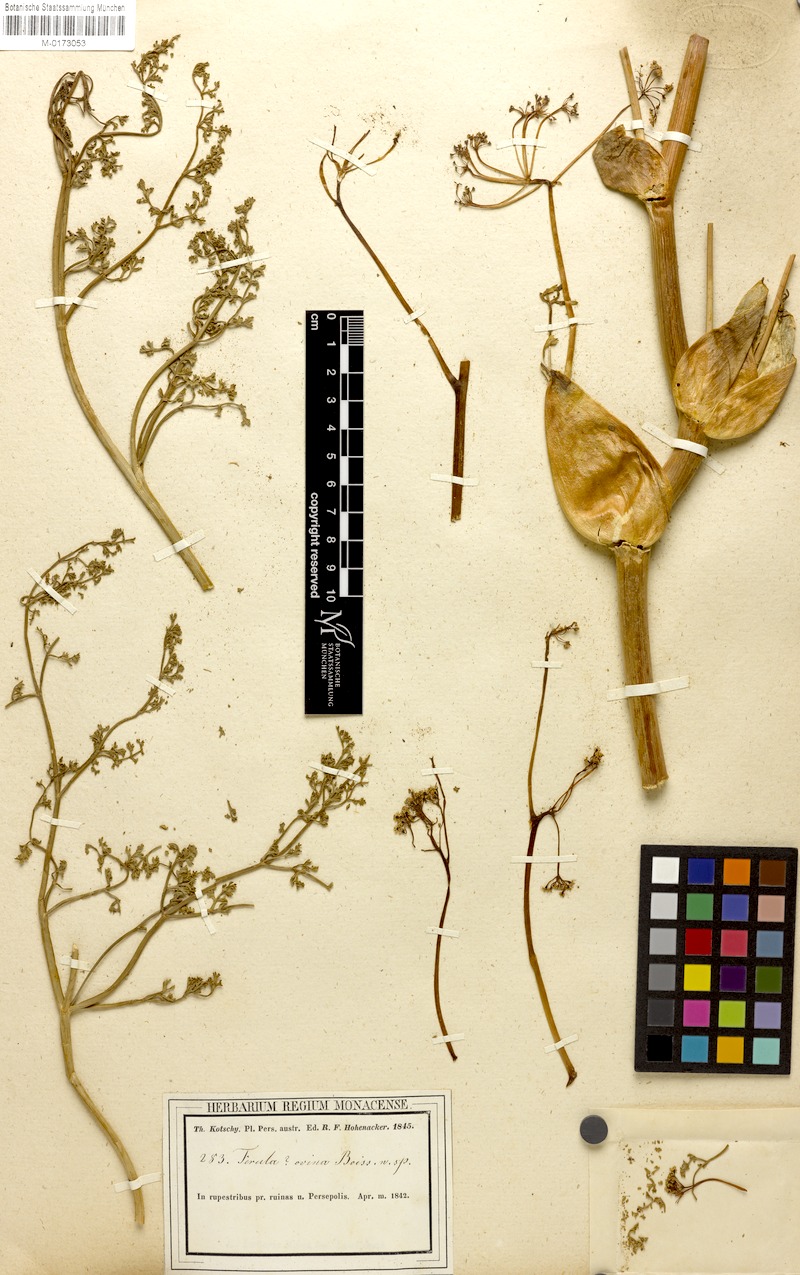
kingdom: Plantae
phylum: Tracheophyta
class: Magnoliopsida
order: Apiales
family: Apiaceae
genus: Ferula
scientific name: Ferula ovina
